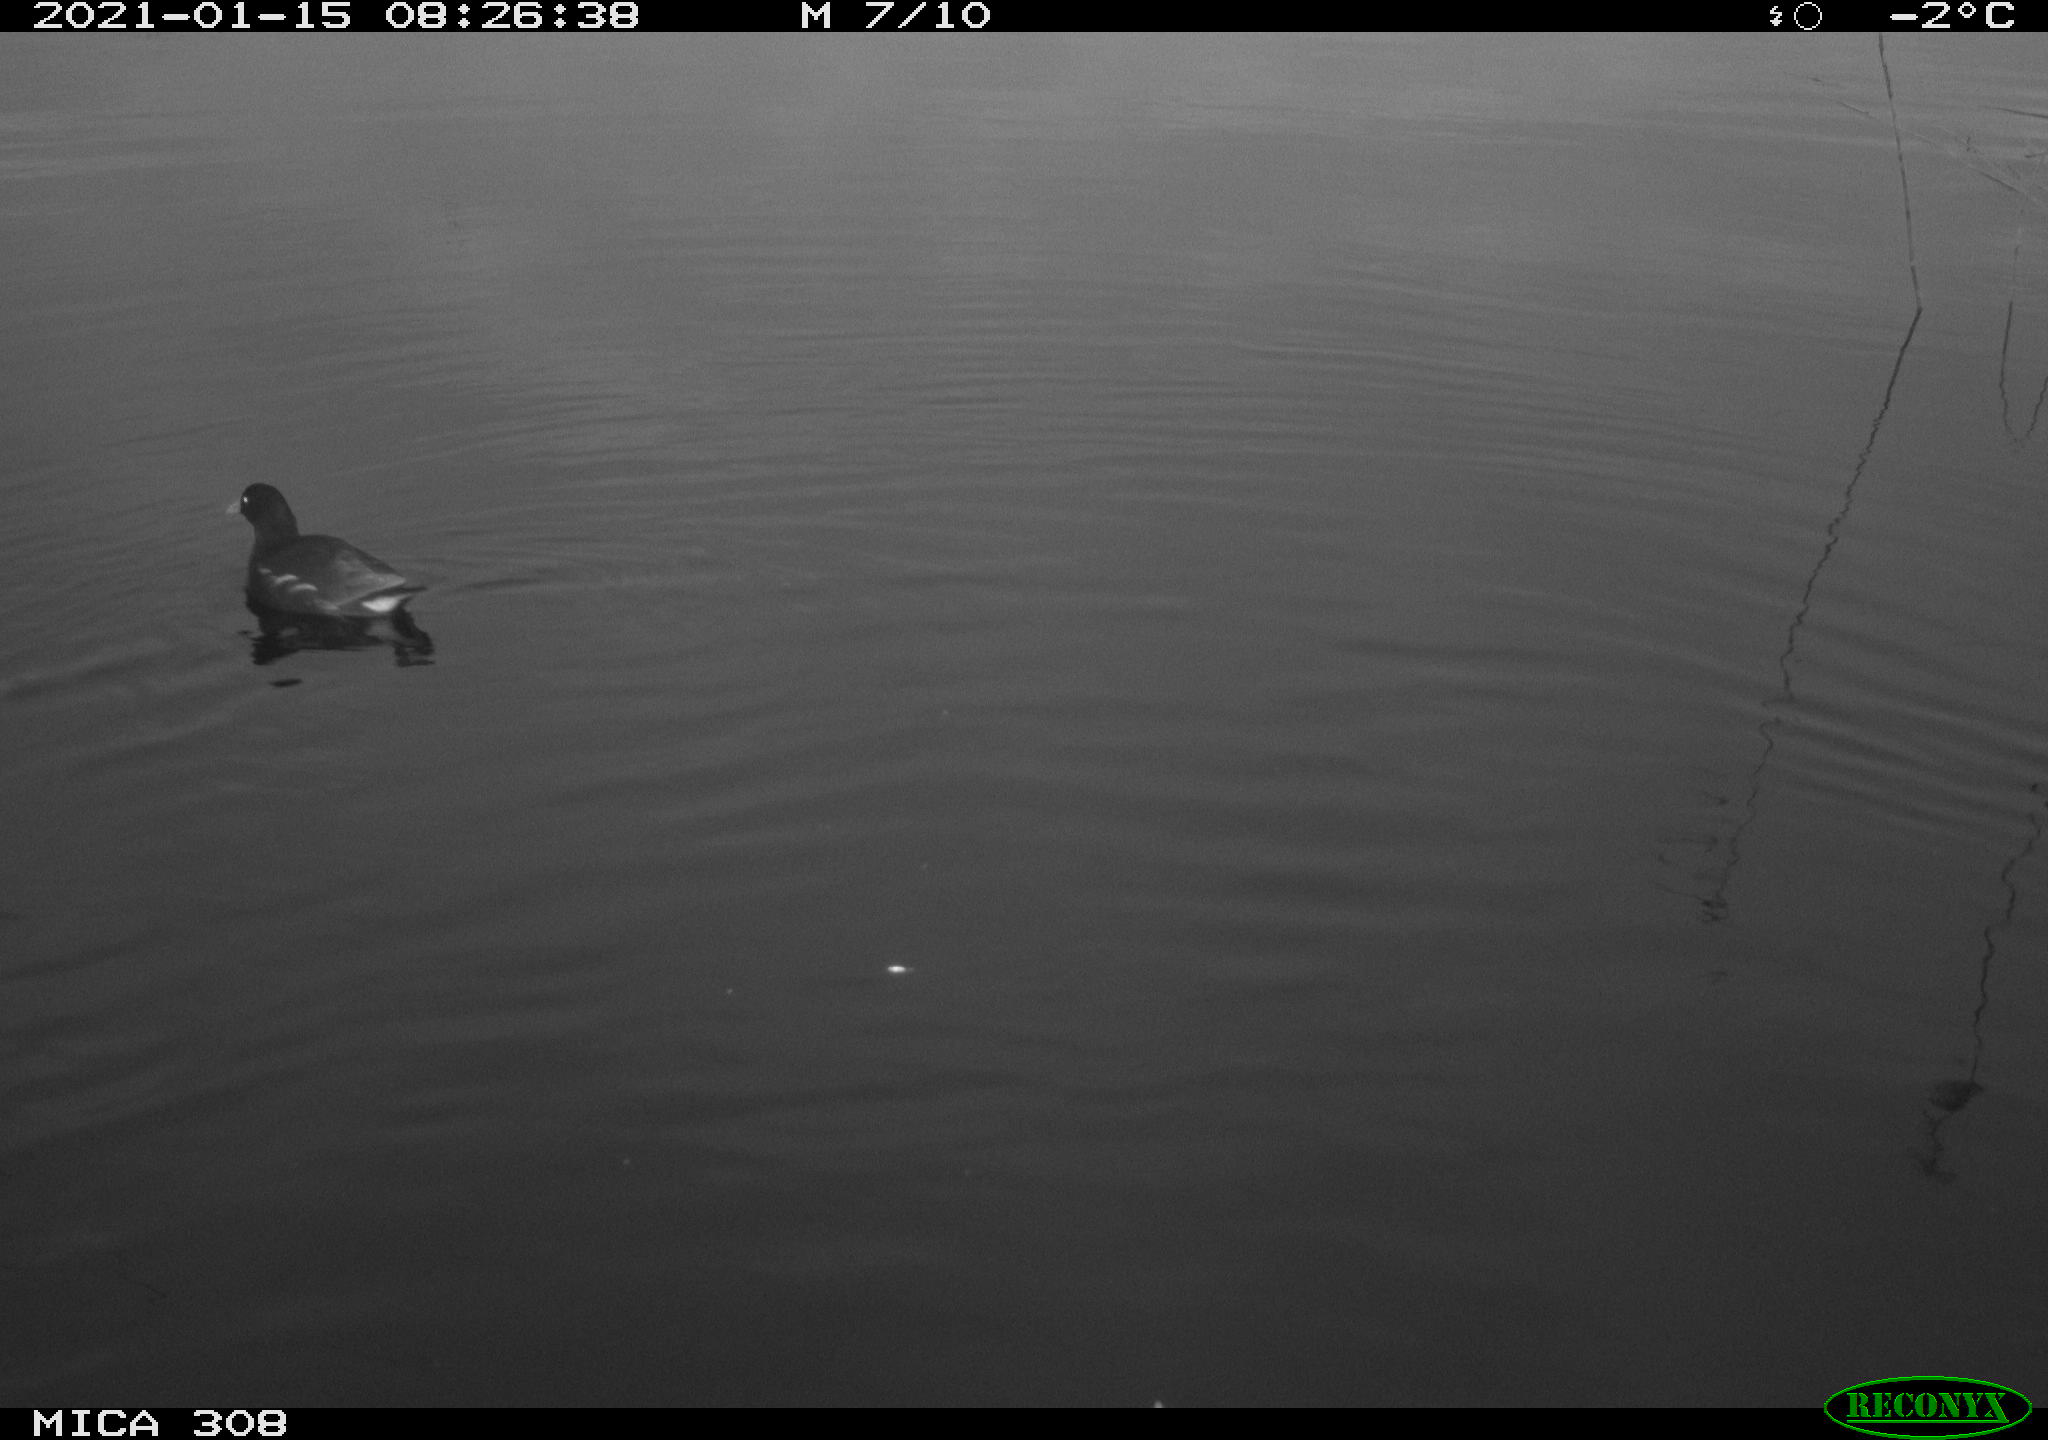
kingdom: Animalia
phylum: Chordata
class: Aves
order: Gruiformes
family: Rallidae
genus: Gallinula
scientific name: Gallinula chloropus
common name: Common moorhen
